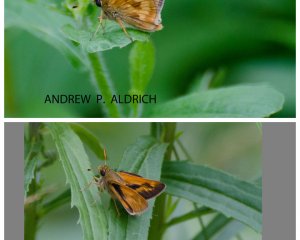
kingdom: Animalia
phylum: Arthropoda
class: Insecta
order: Lepidoptera
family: Hesperiidae
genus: Polites
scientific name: Polites
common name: Long Dash Skipper
